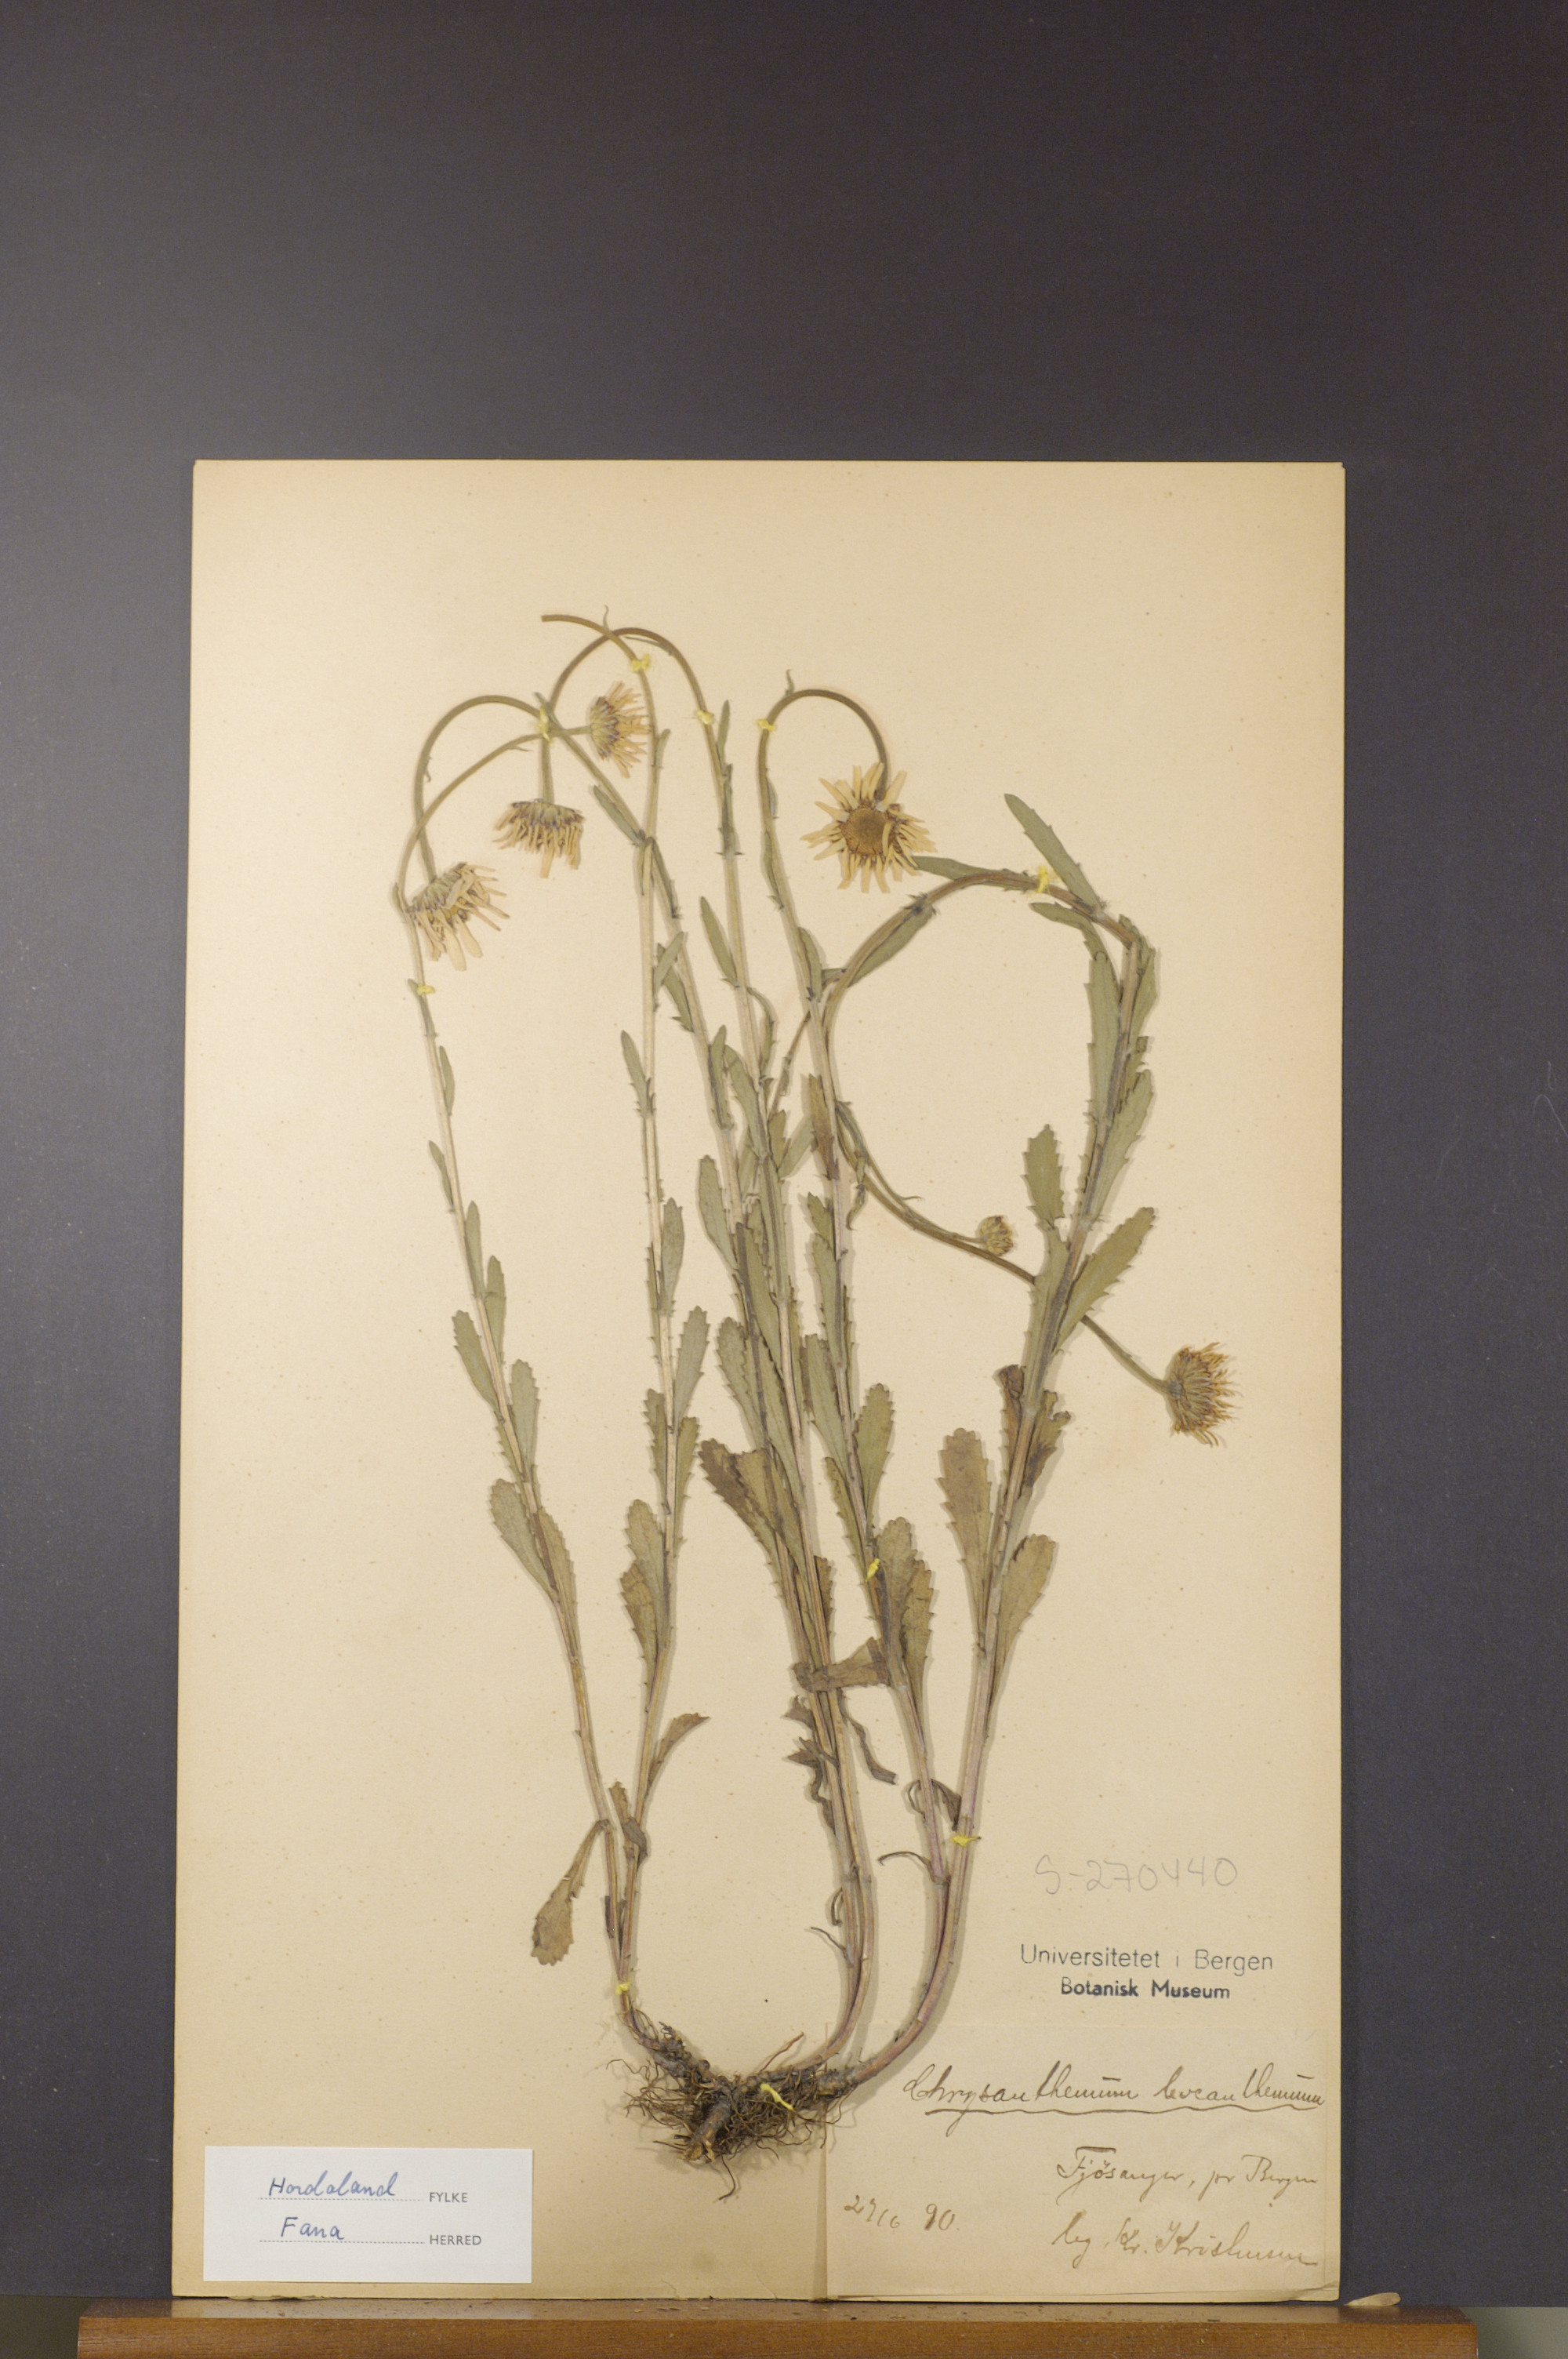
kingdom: Plantae
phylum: Tracheophyta
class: Magnoliopsida
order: Asterales
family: Asteraceae
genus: Leucanthemum
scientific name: Leucanthemum vulgare
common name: Oxeye daisy
